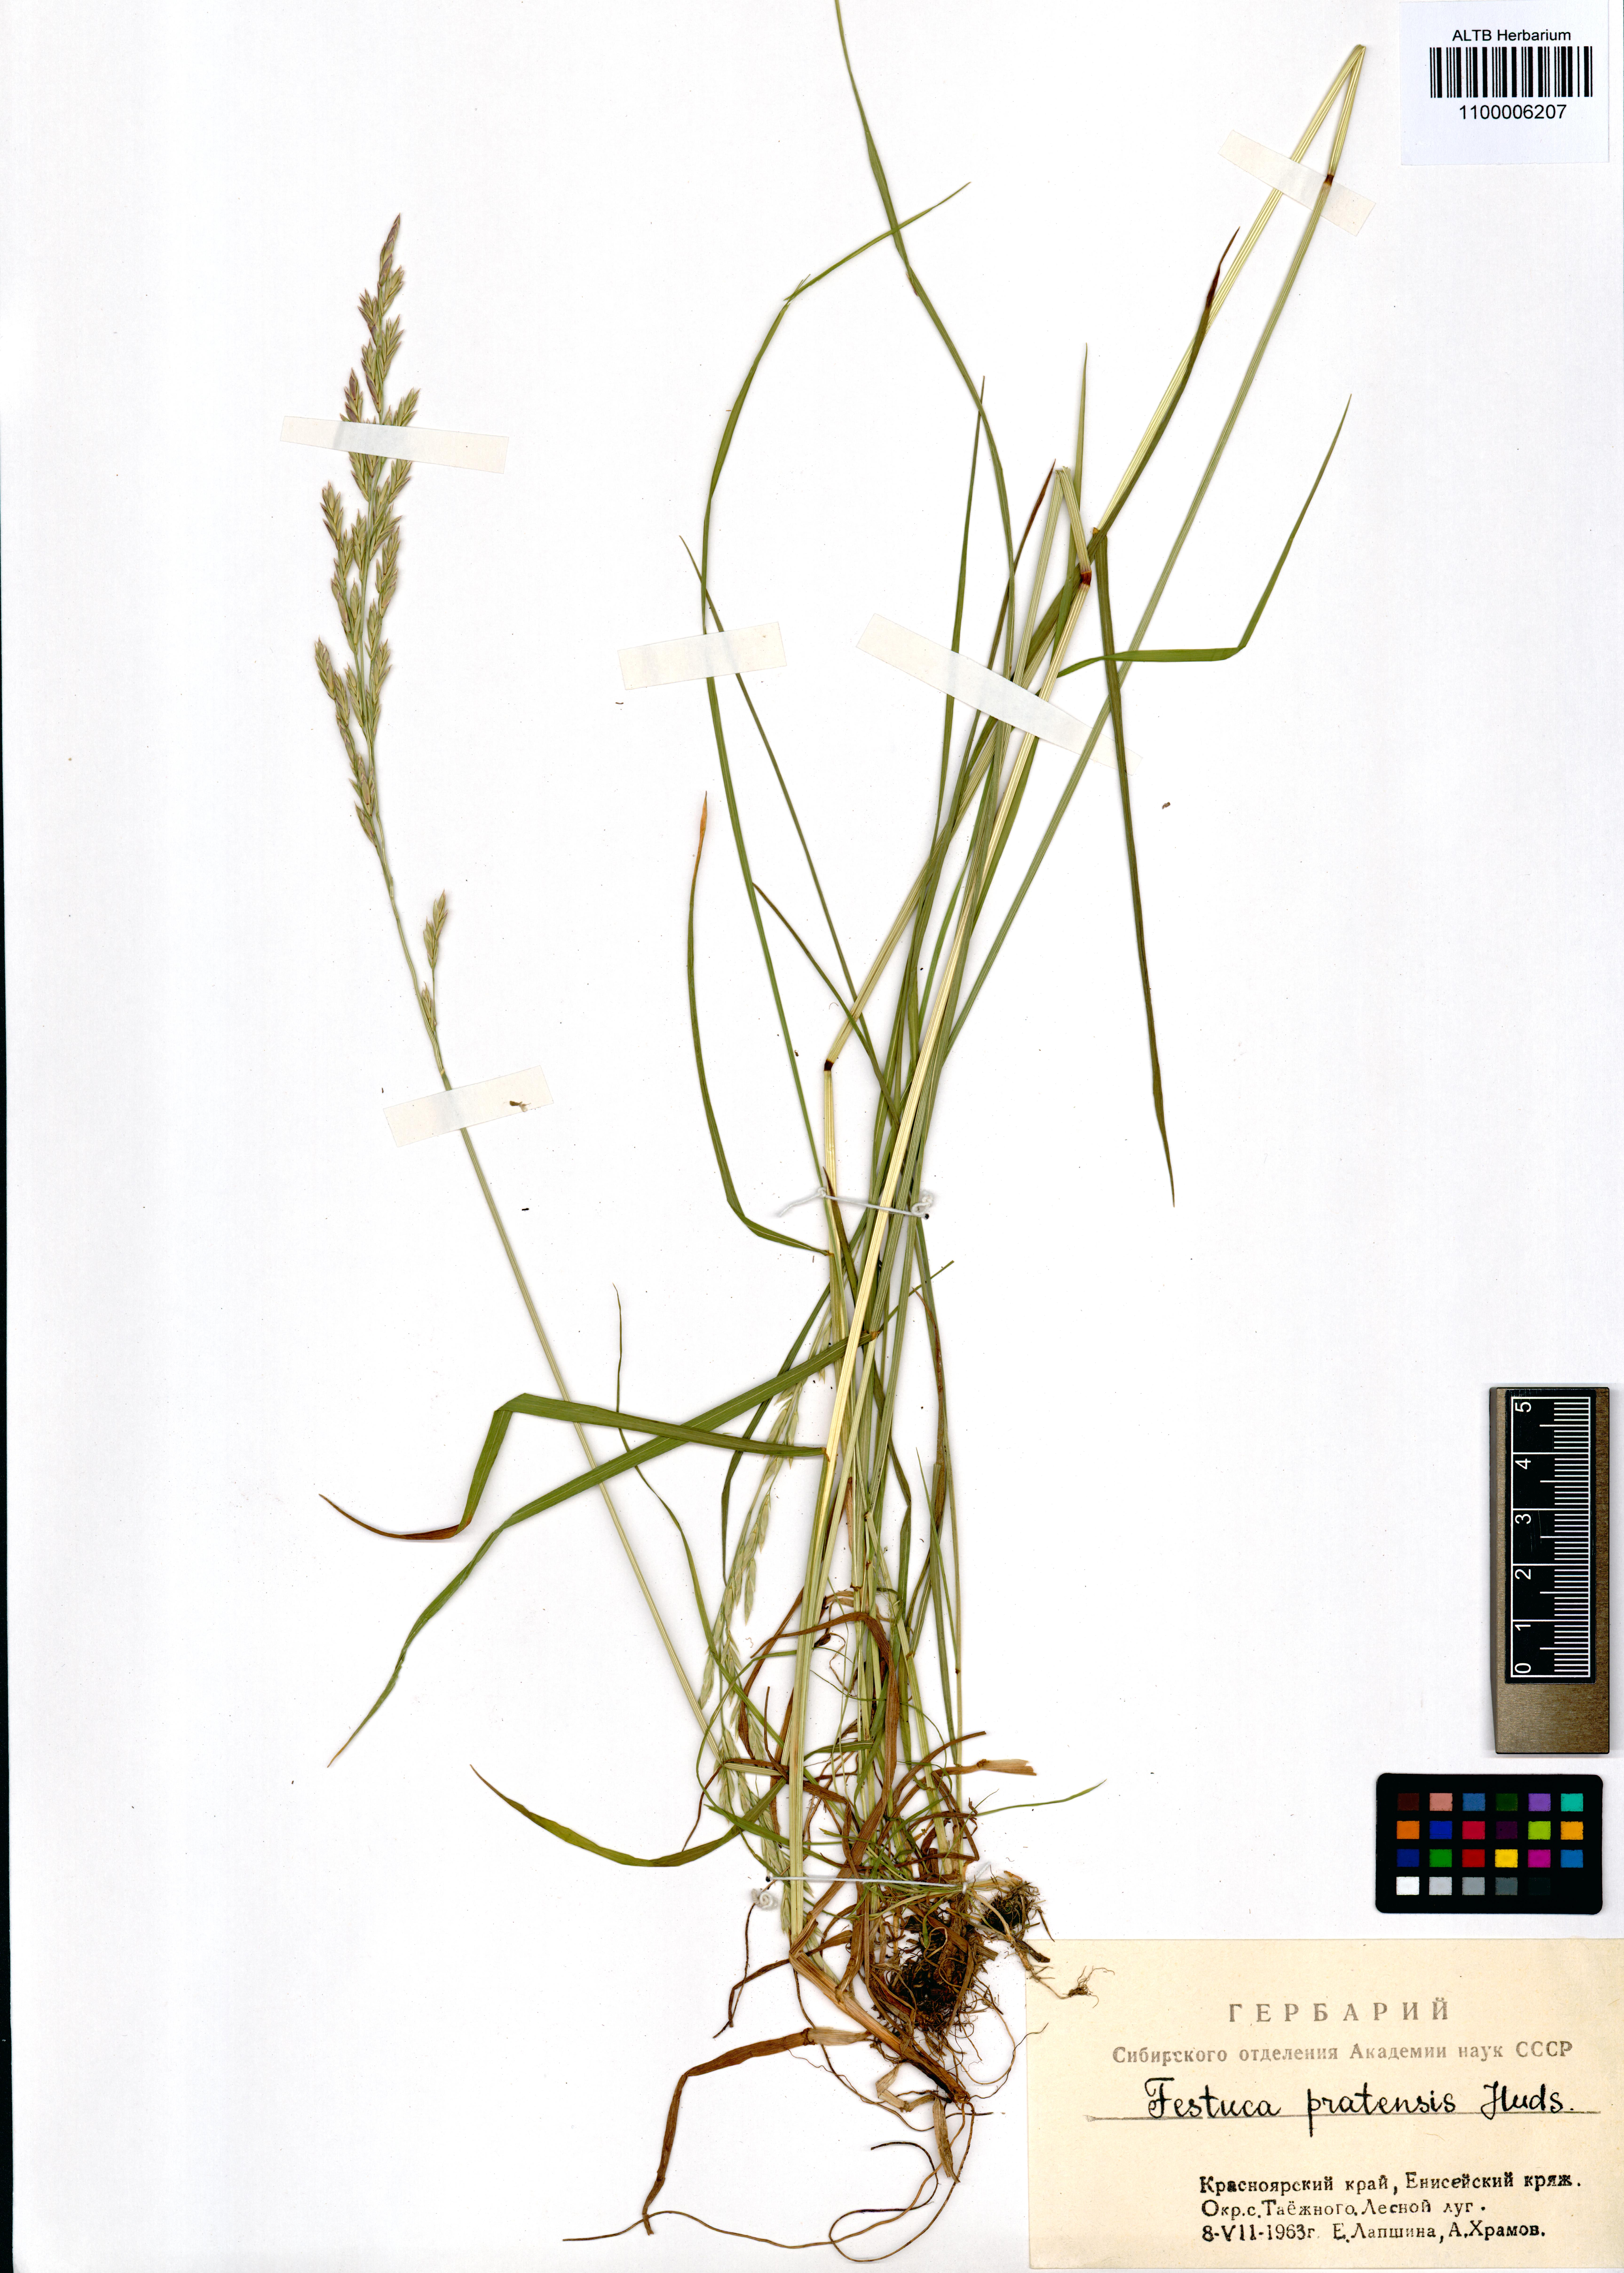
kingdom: Plantae
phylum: Tracheophyta
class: Liliopsida
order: Poales
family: Poaceae
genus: Lolium
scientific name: Lolium pratense
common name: Dover grass
